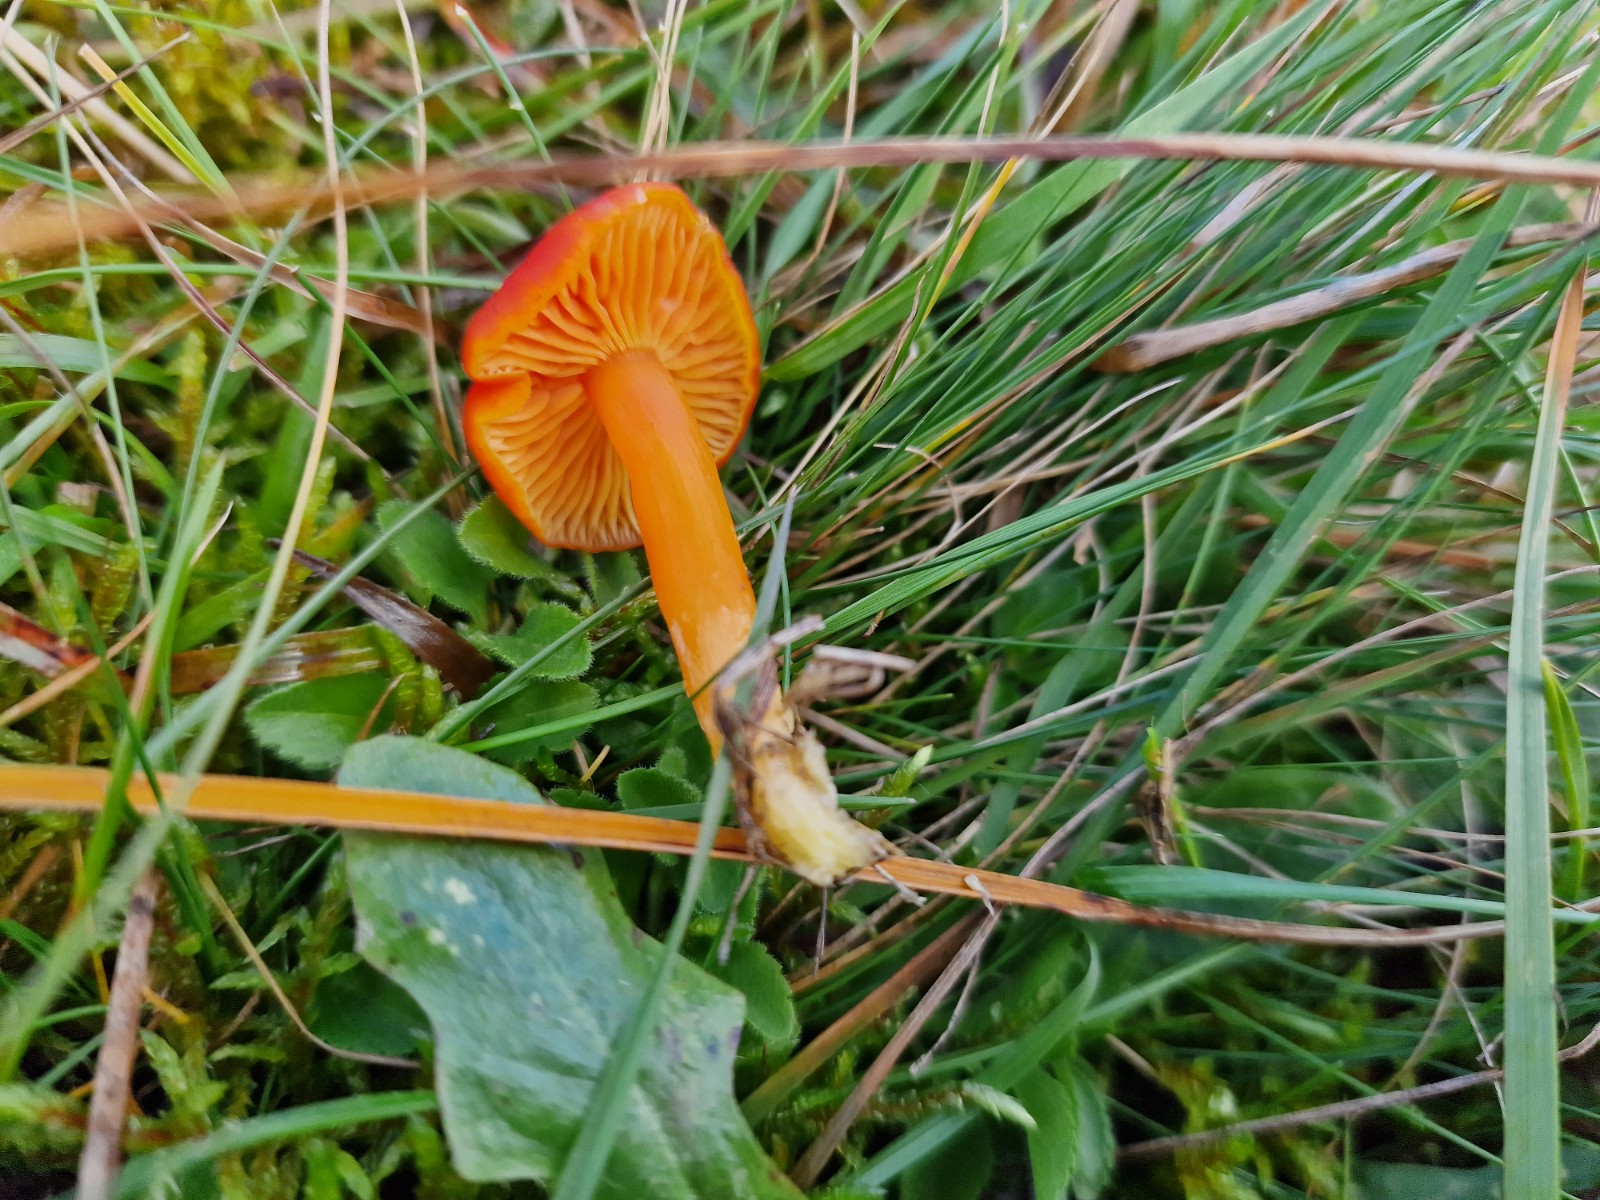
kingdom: Fungi
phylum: Basidiomycota
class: Agaricomycetes
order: Agaricales
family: Hygrophoraceae
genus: Hygrocybe
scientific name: Hygrocybe chlorophana
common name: gul vokshat
